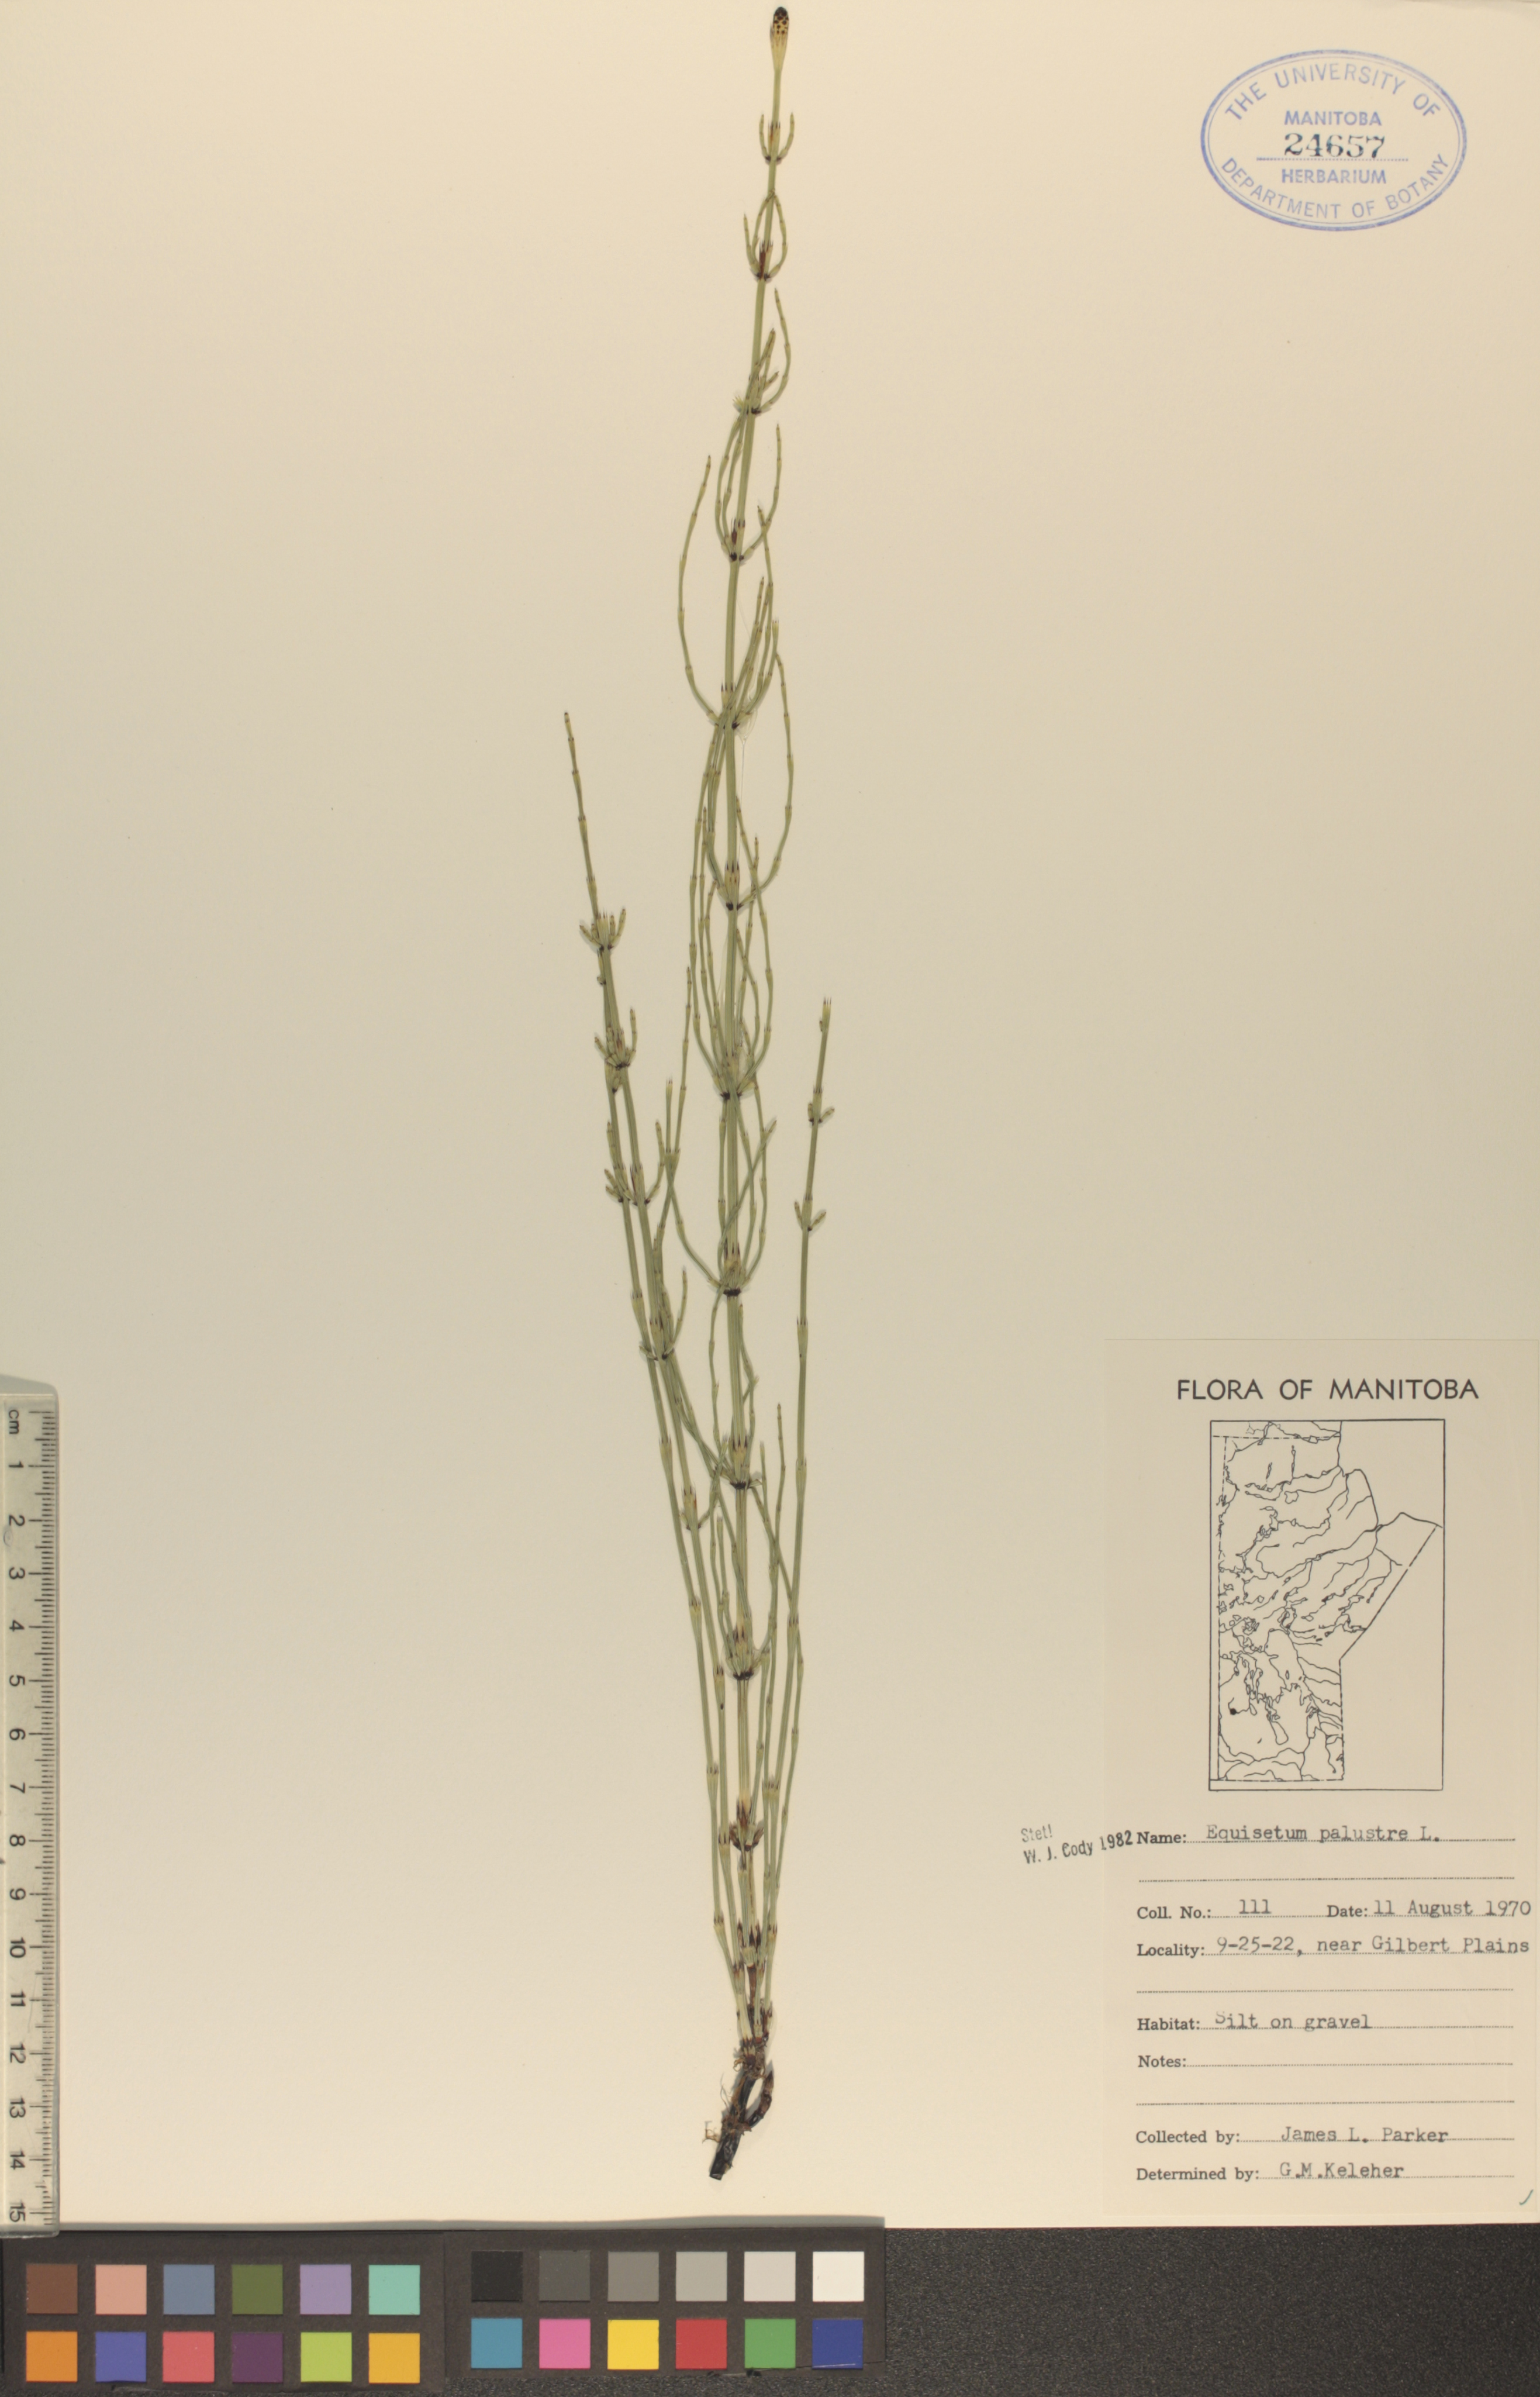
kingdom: Plantae
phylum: Tracheophyta
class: Polypodiopsida
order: Equisetales
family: Equisetaceae
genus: Equisetum
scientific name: Equisetum palustre
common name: Marsh horsetail
